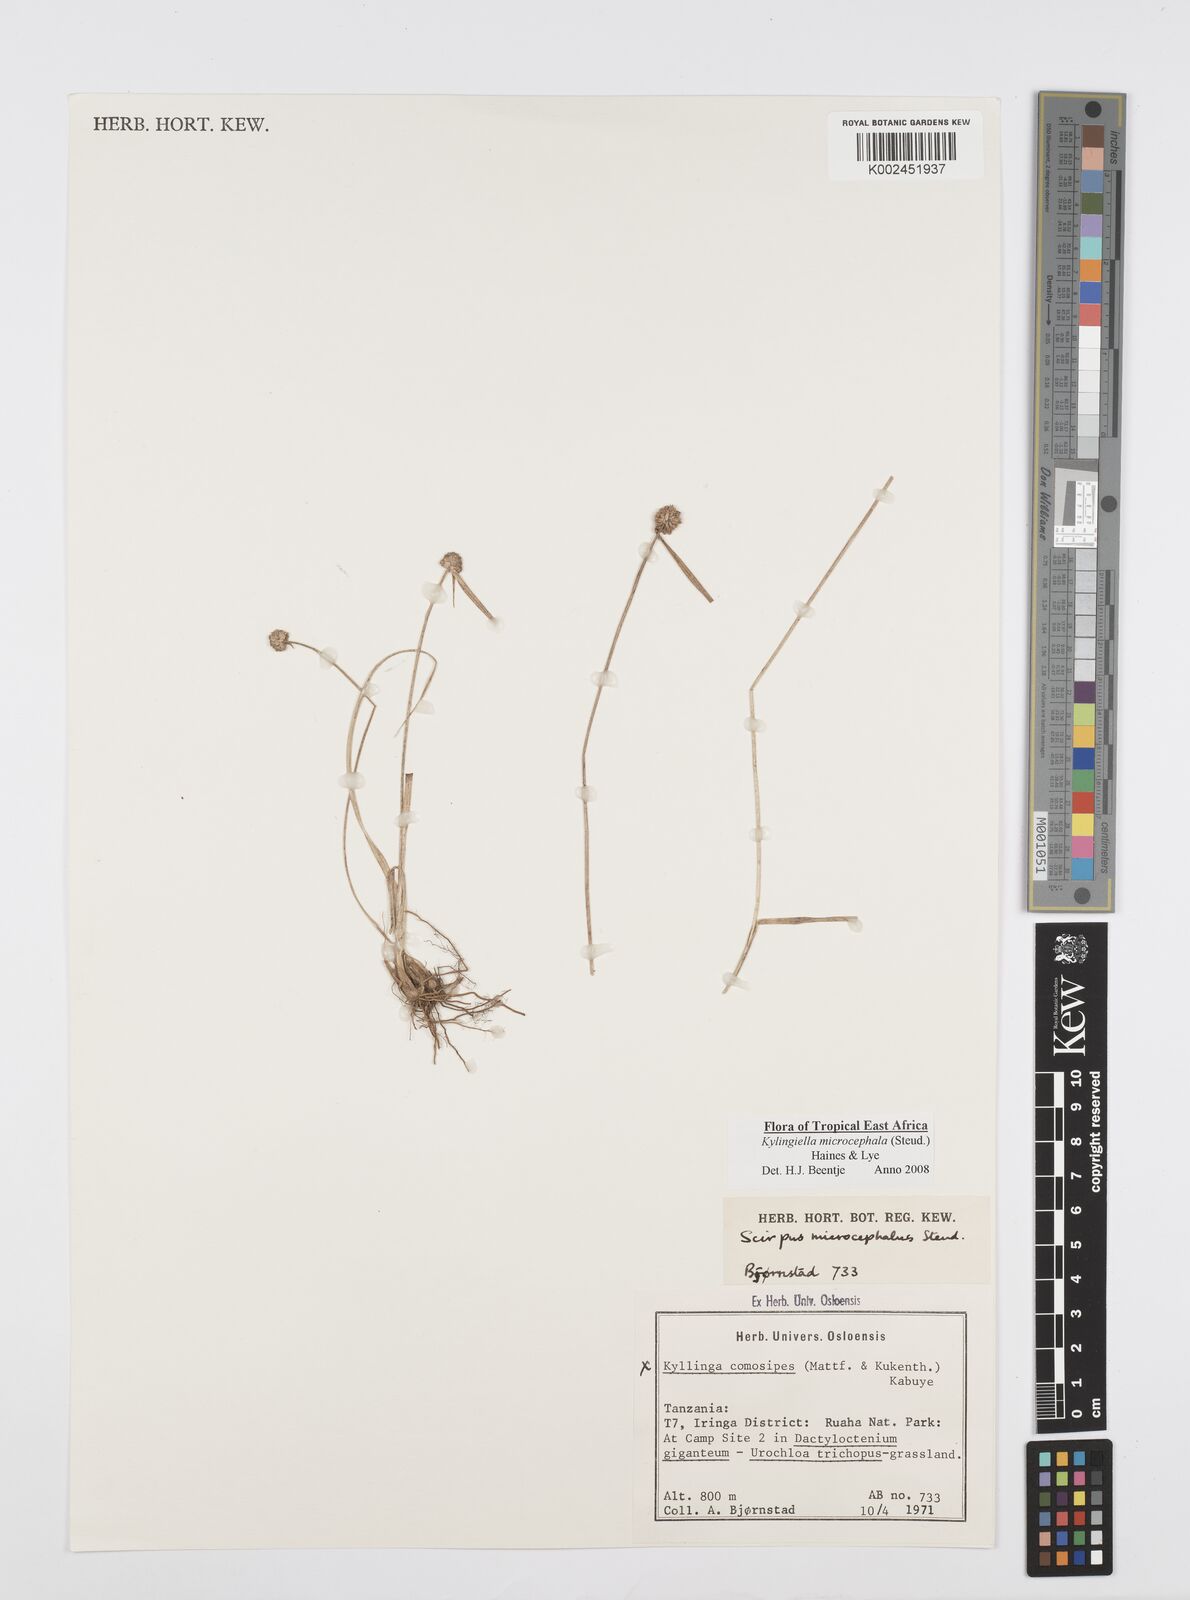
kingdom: Plantae
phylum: Tracheophyta
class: Liliopsida
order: Poales
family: Cyperaceae
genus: Cyperus
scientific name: Cyperus microcephalus
